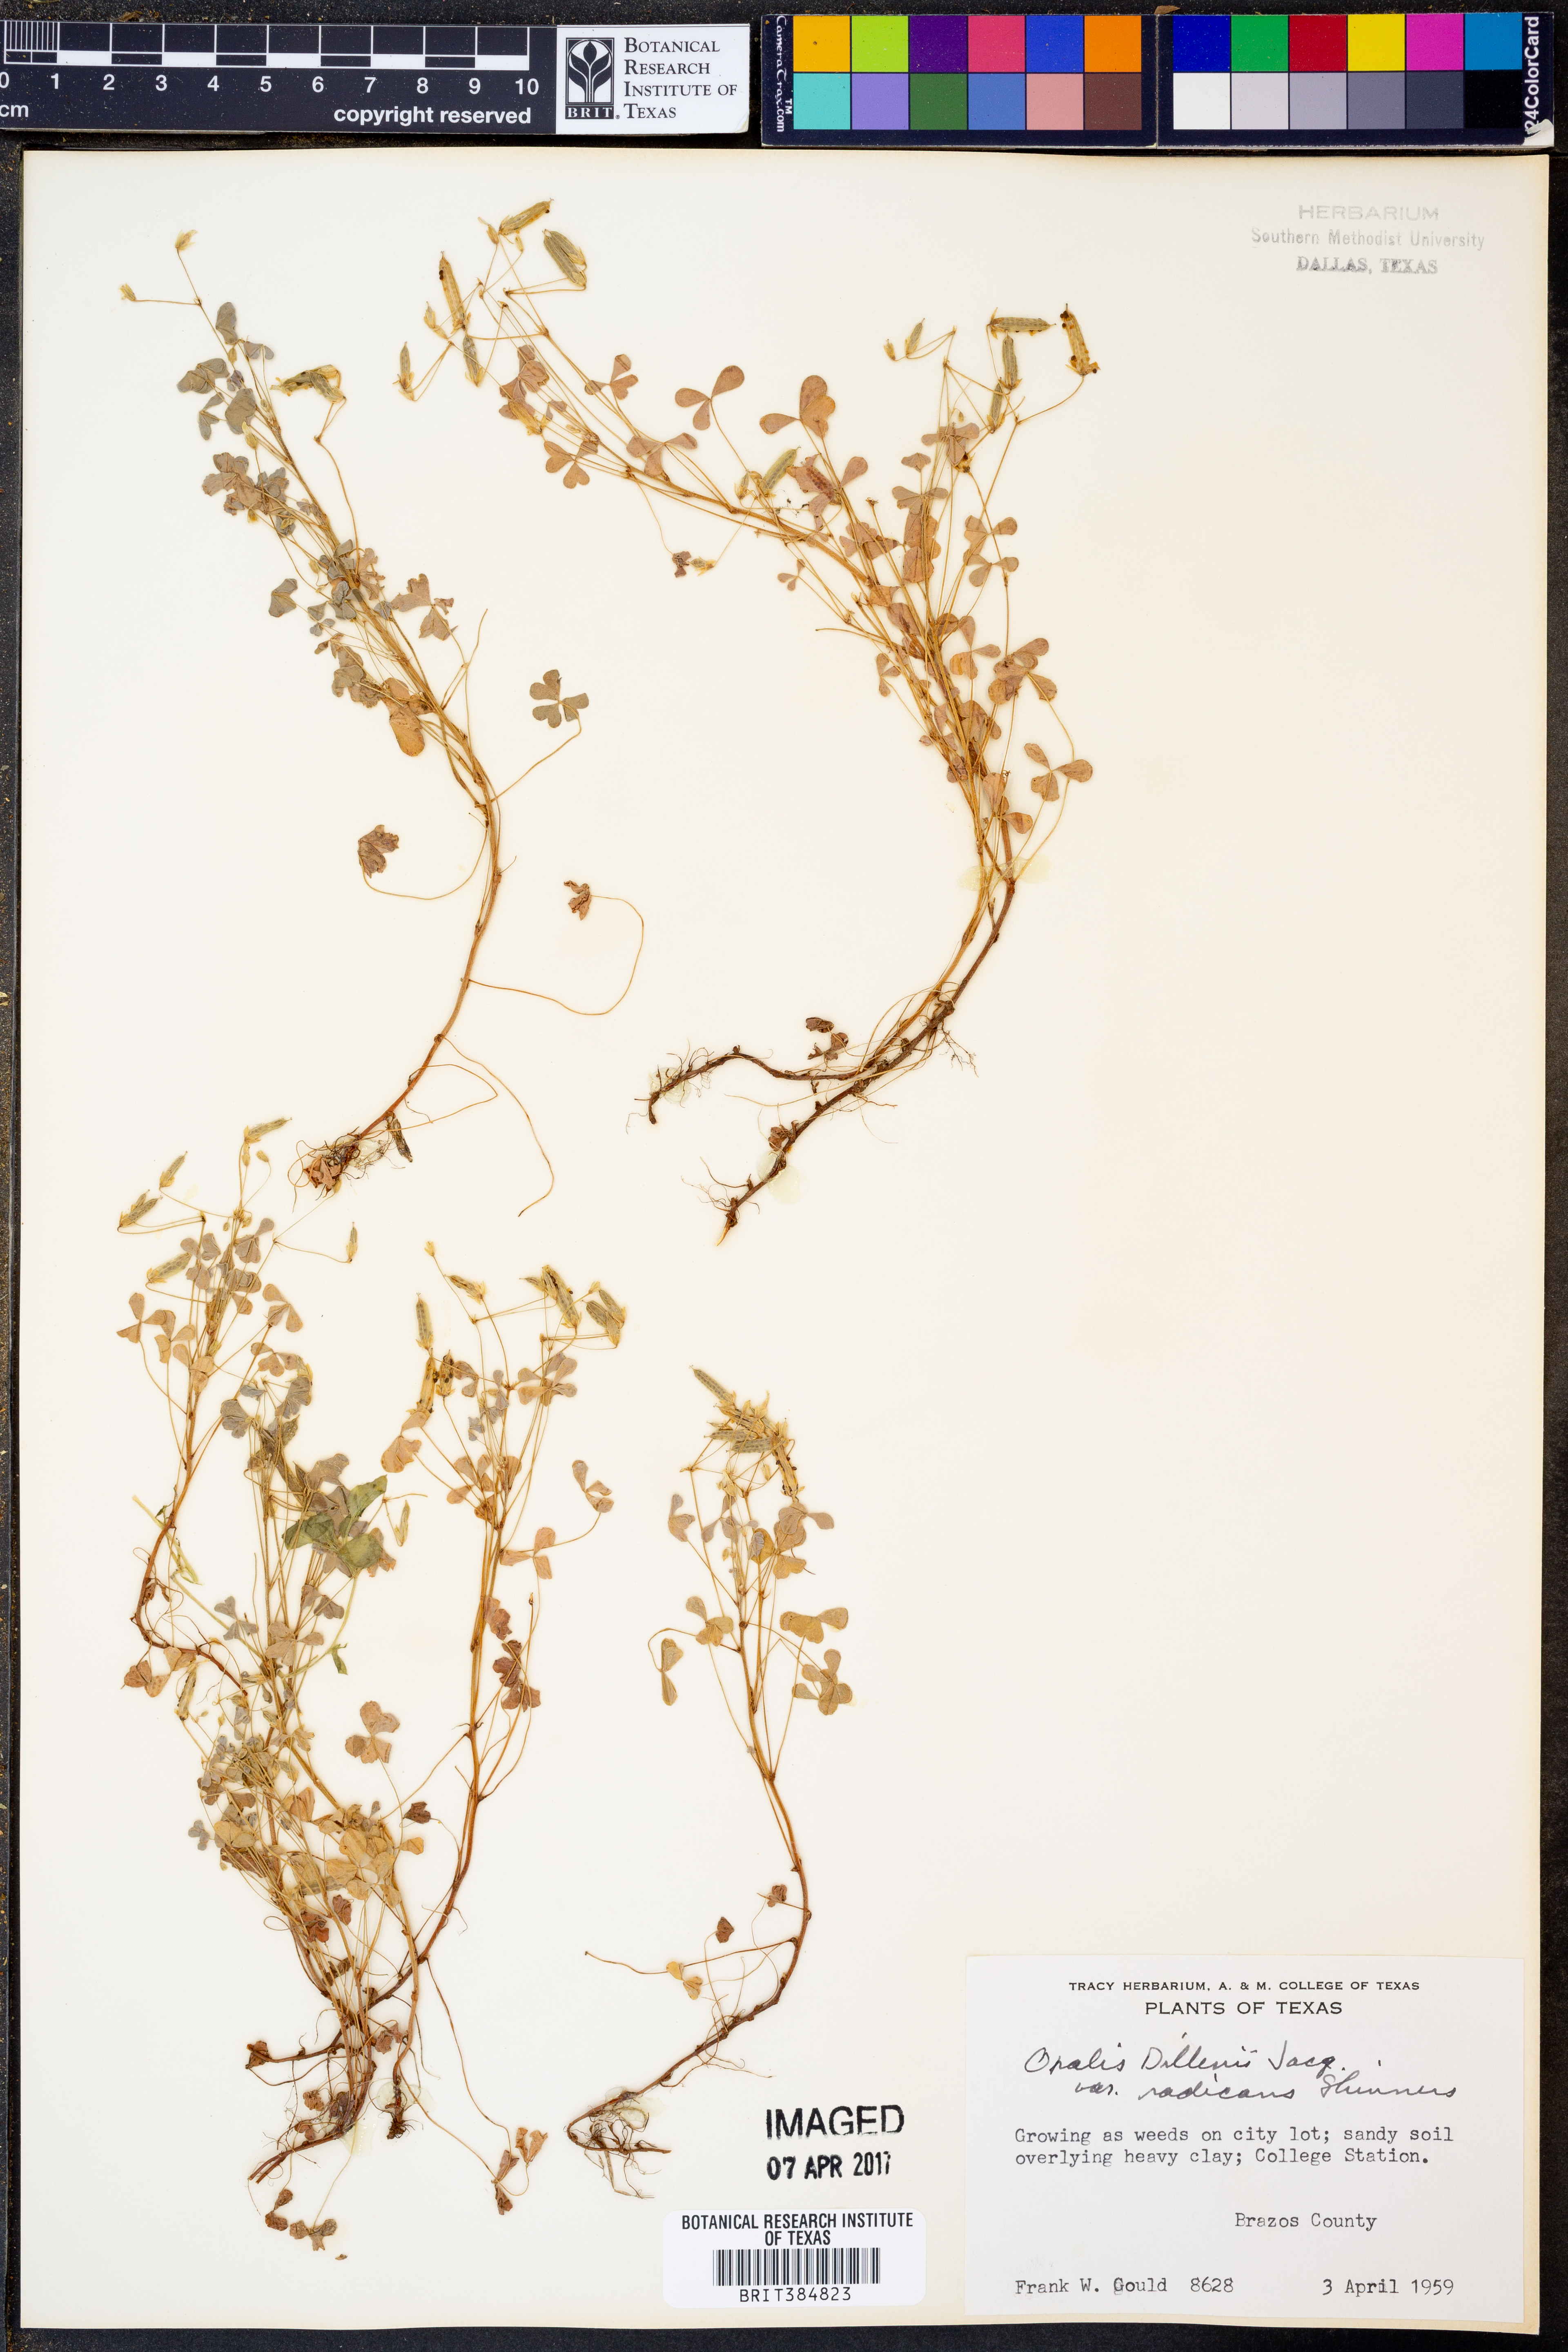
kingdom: Plantae
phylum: Tracheophyta
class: Magnoliopsida
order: Oxalidales
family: Oxalidaceae
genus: Oxalis
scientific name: Oxalis dillenii
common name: Sussex yellow-sorrel
